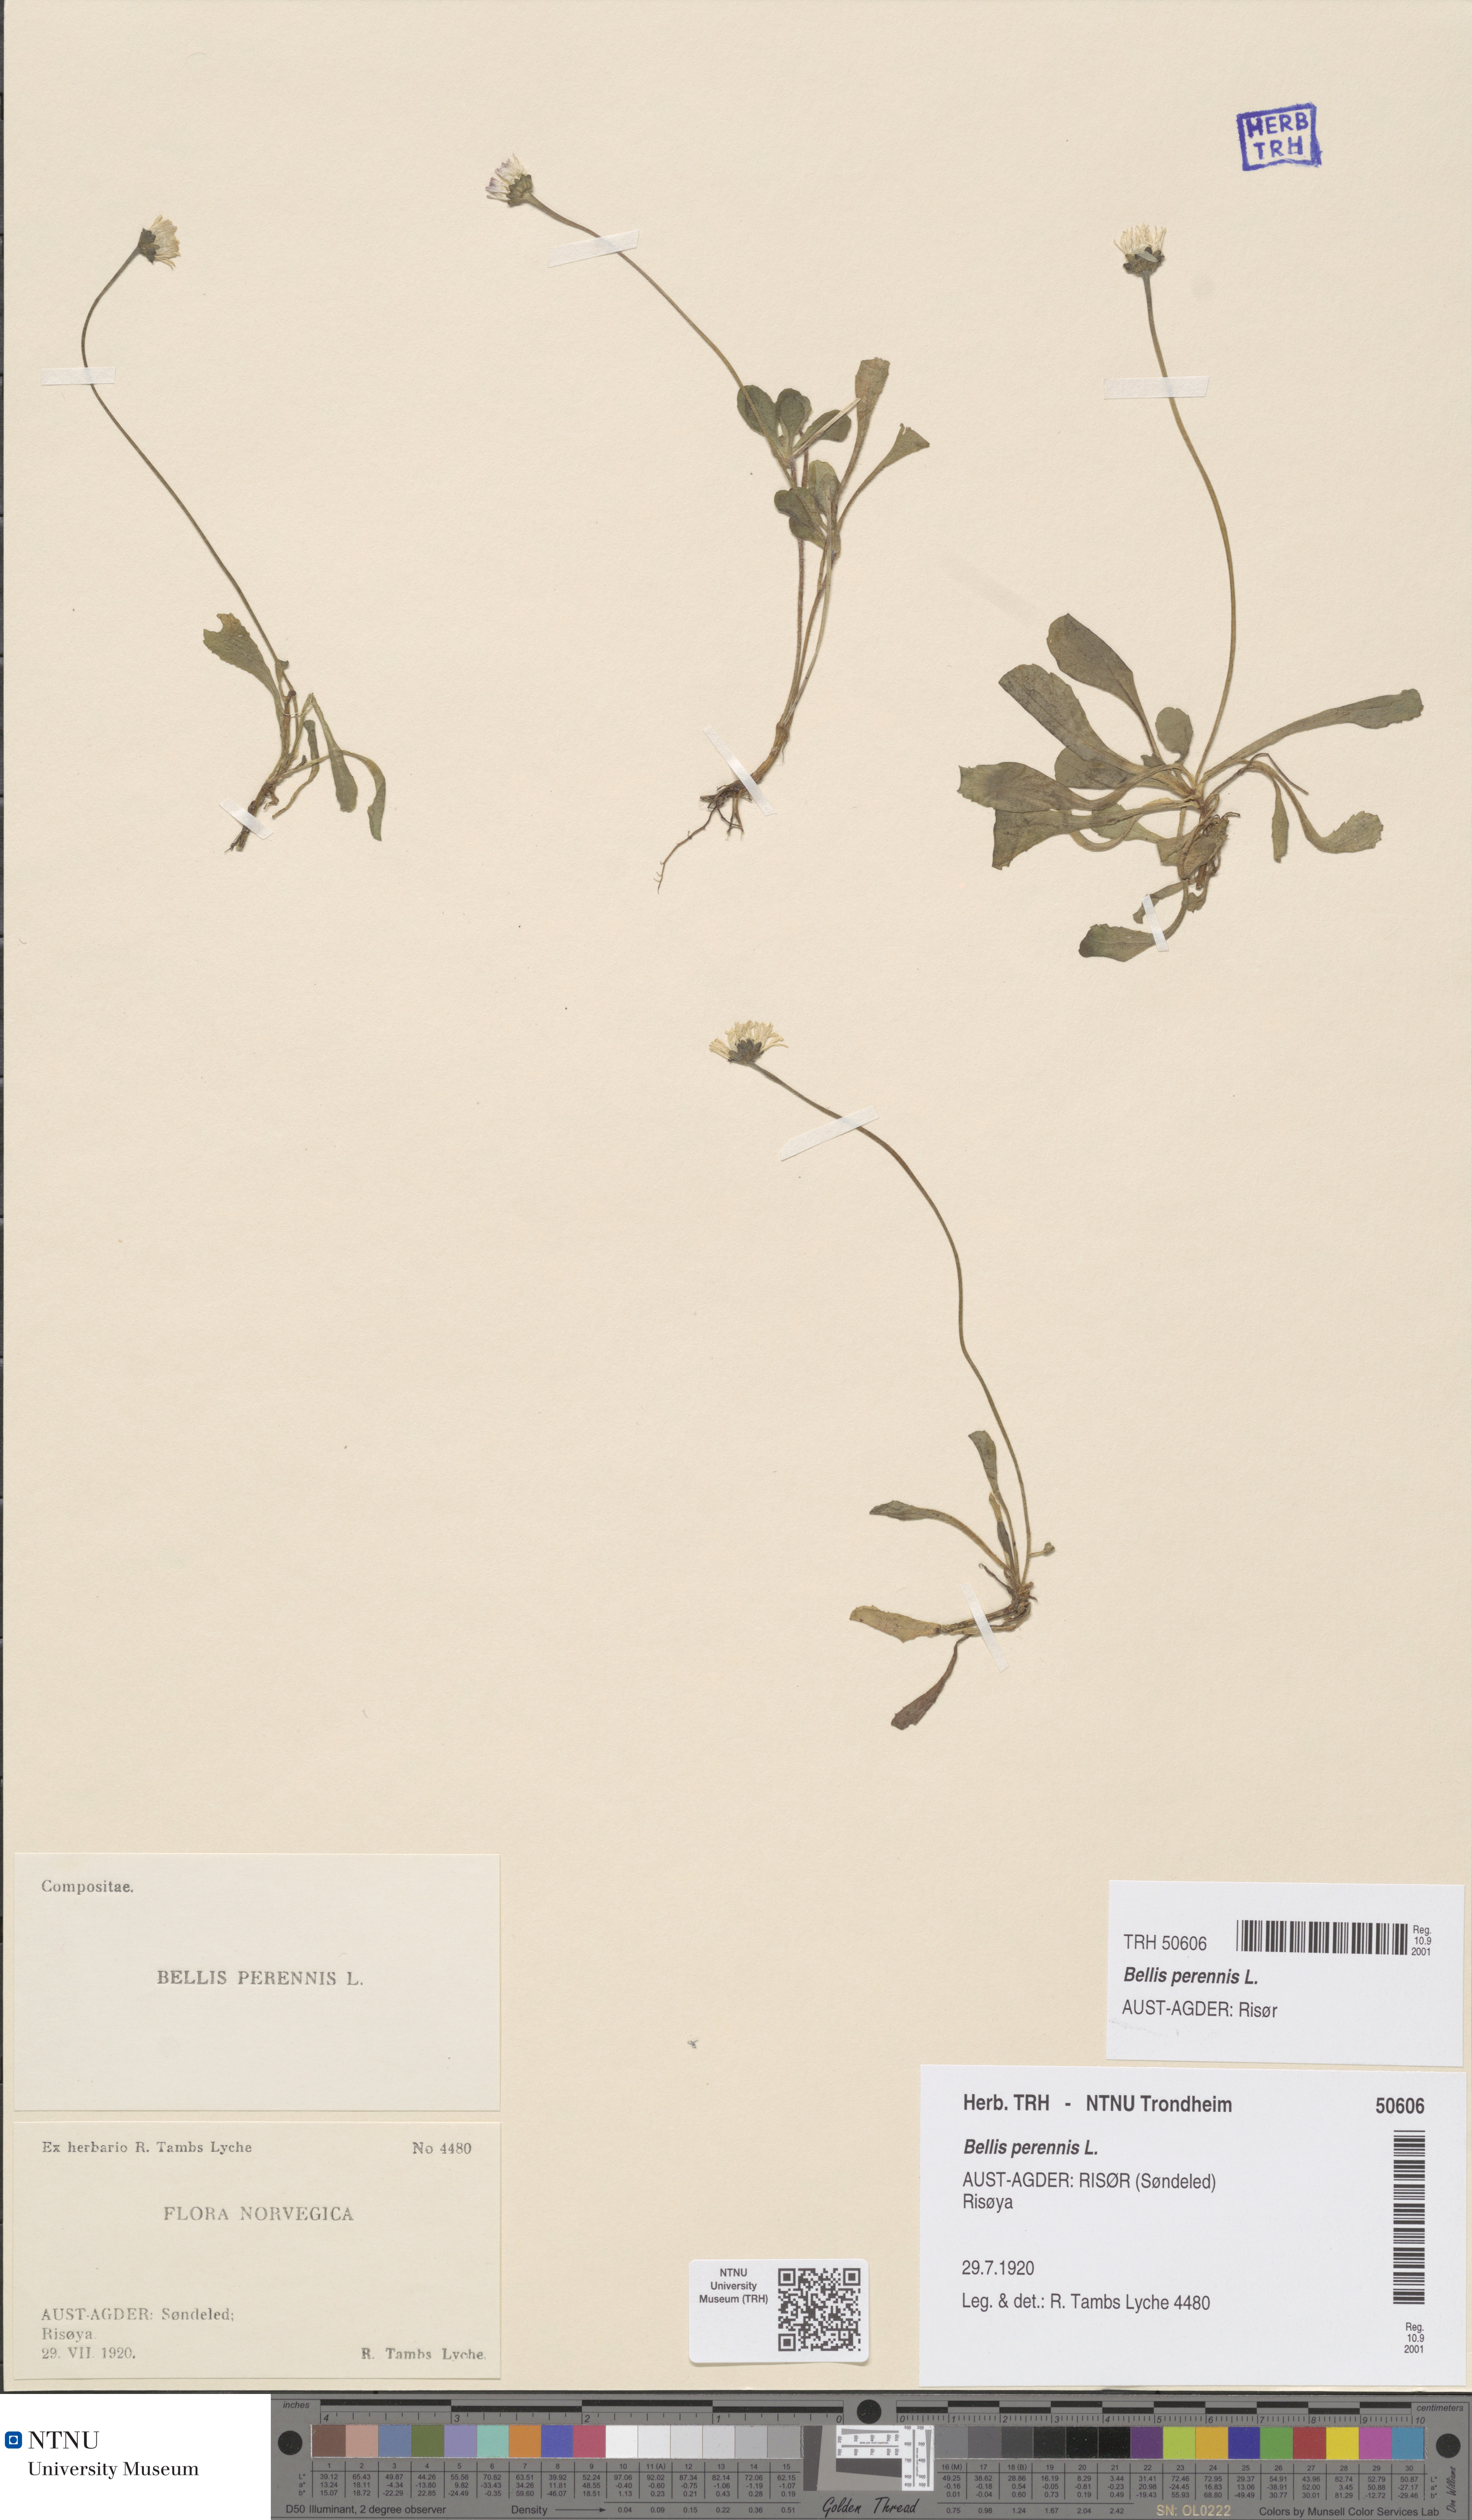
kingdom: Plantae
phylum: Tracheophyta
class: Magnoliopsida
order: Asterales
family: Asteraceae
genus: Bellis
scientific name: Bellis perennis
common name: Lawndaisy
